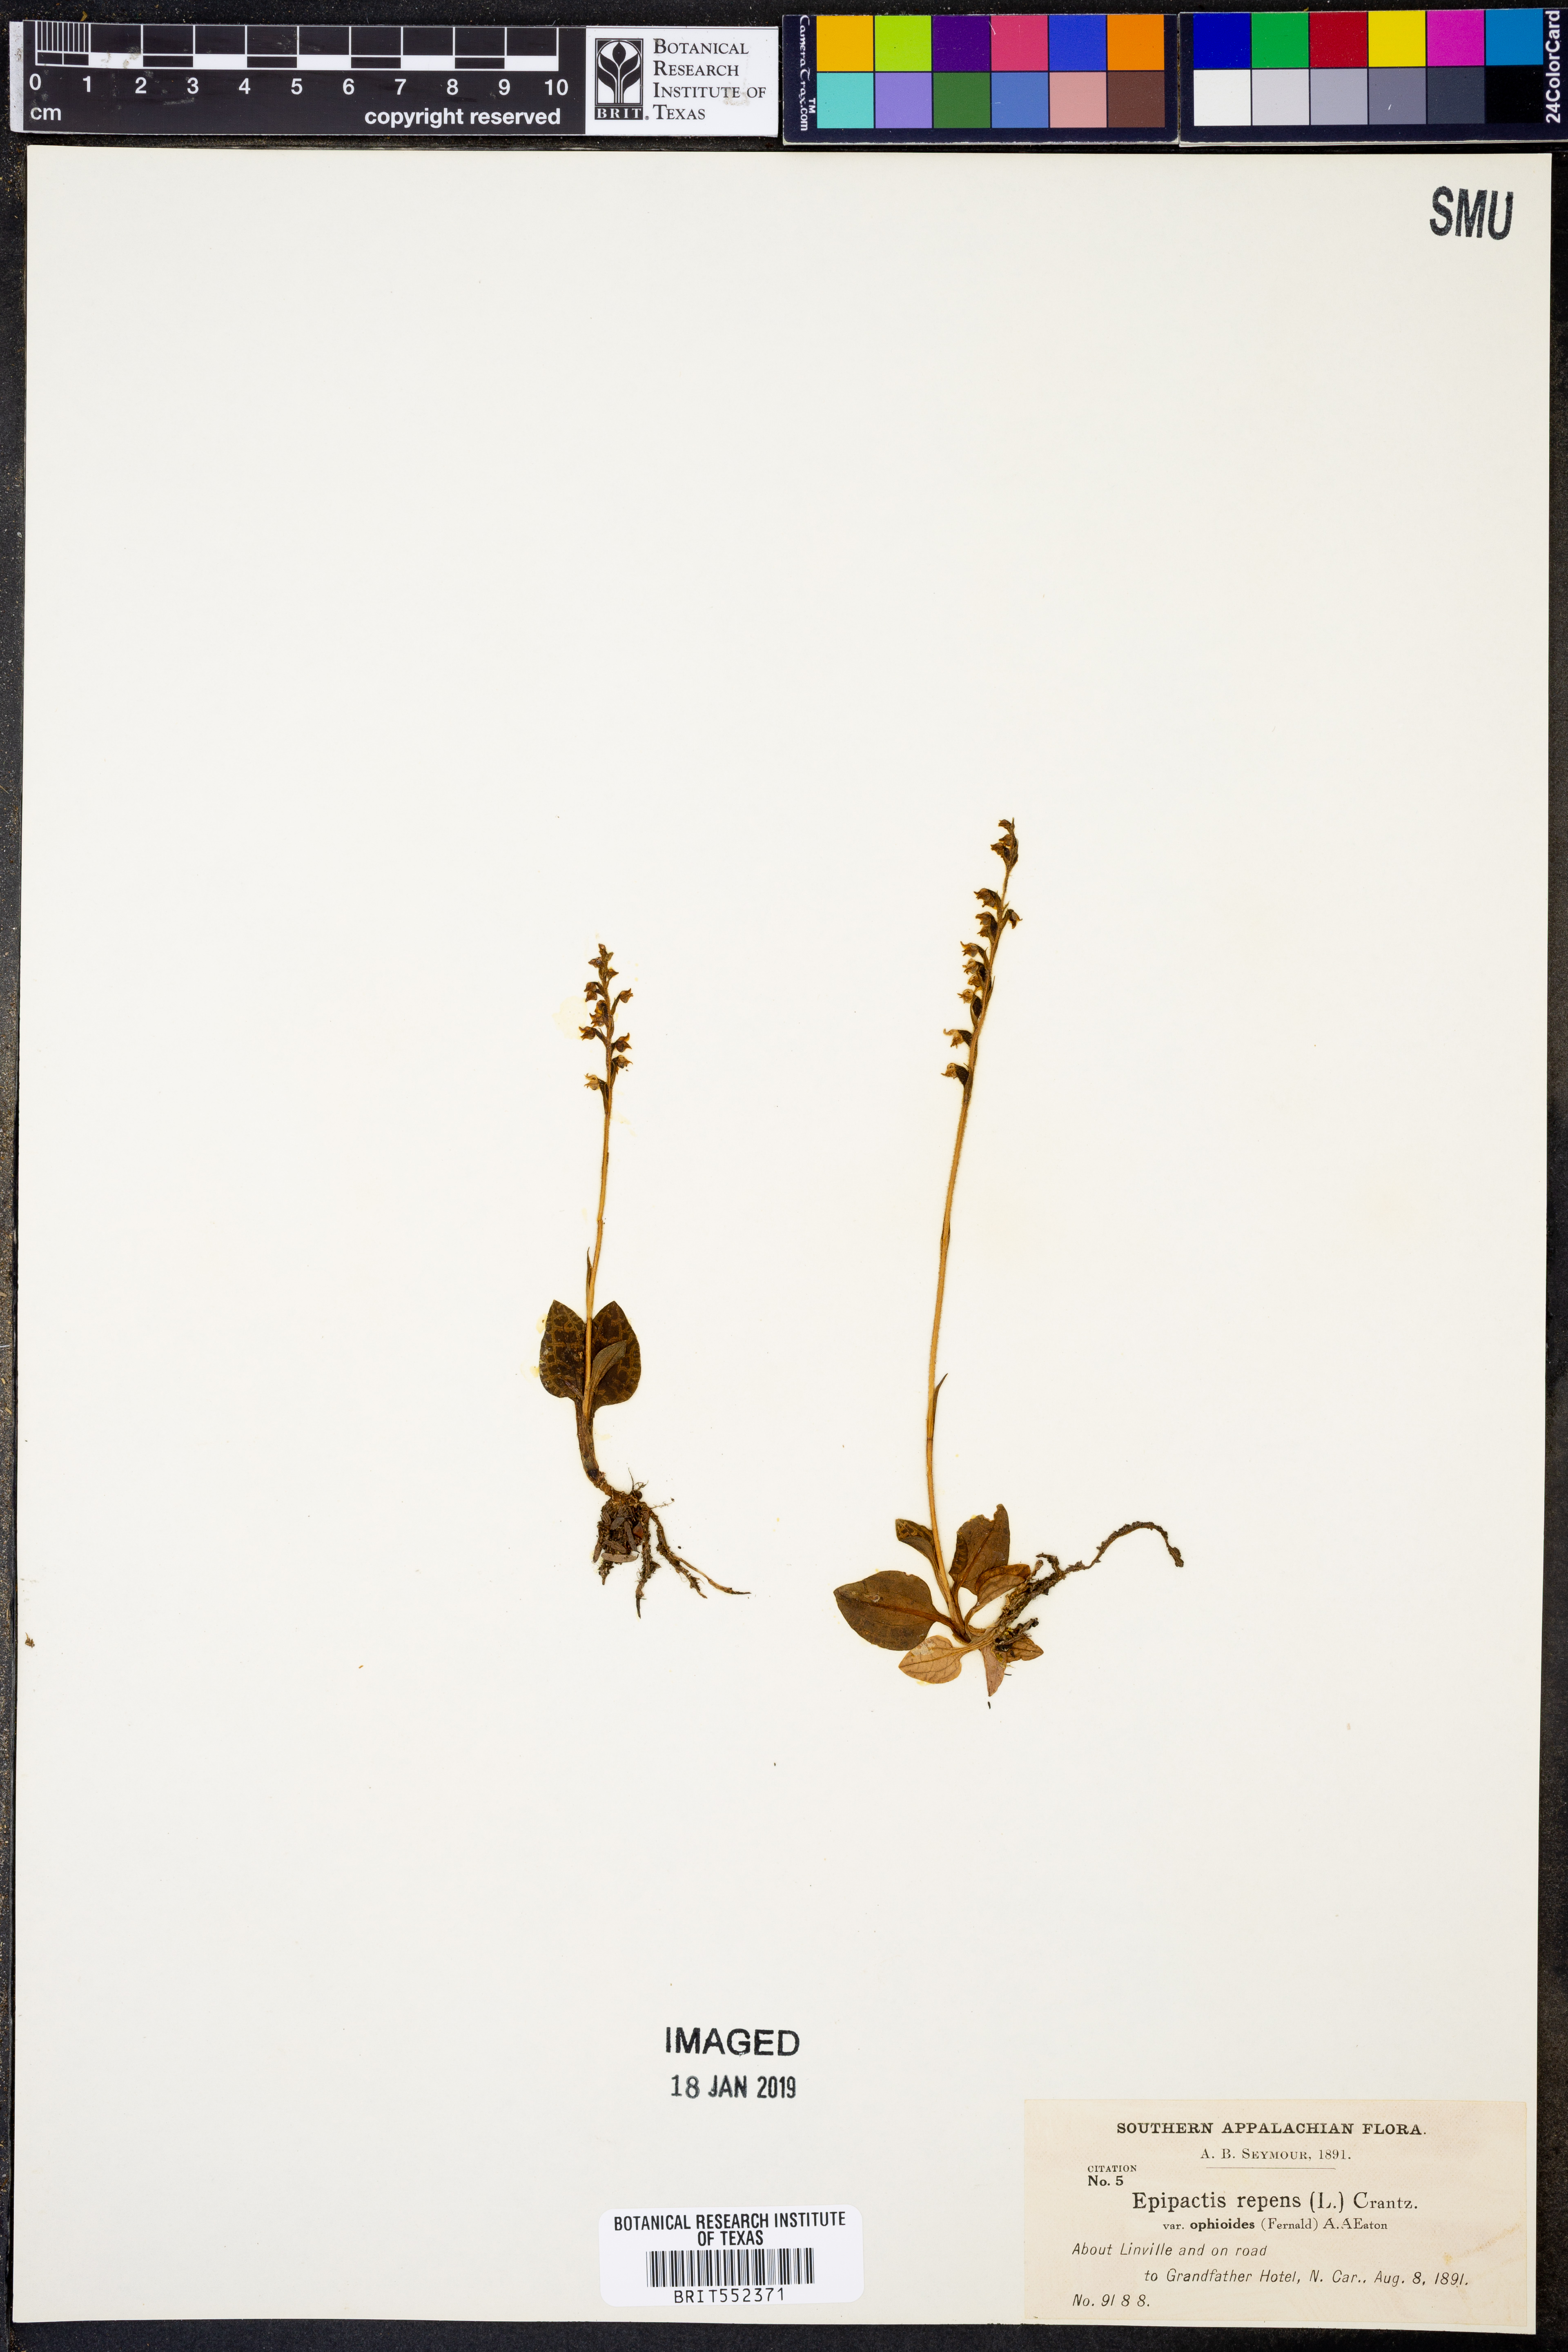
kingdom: Plantae
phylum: Tracheophyta
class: Liliopsida
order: Asparagales
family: Orchidaceae
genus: Goodyera
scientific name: Goodyera repens
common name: Creeping lady's-tresses
